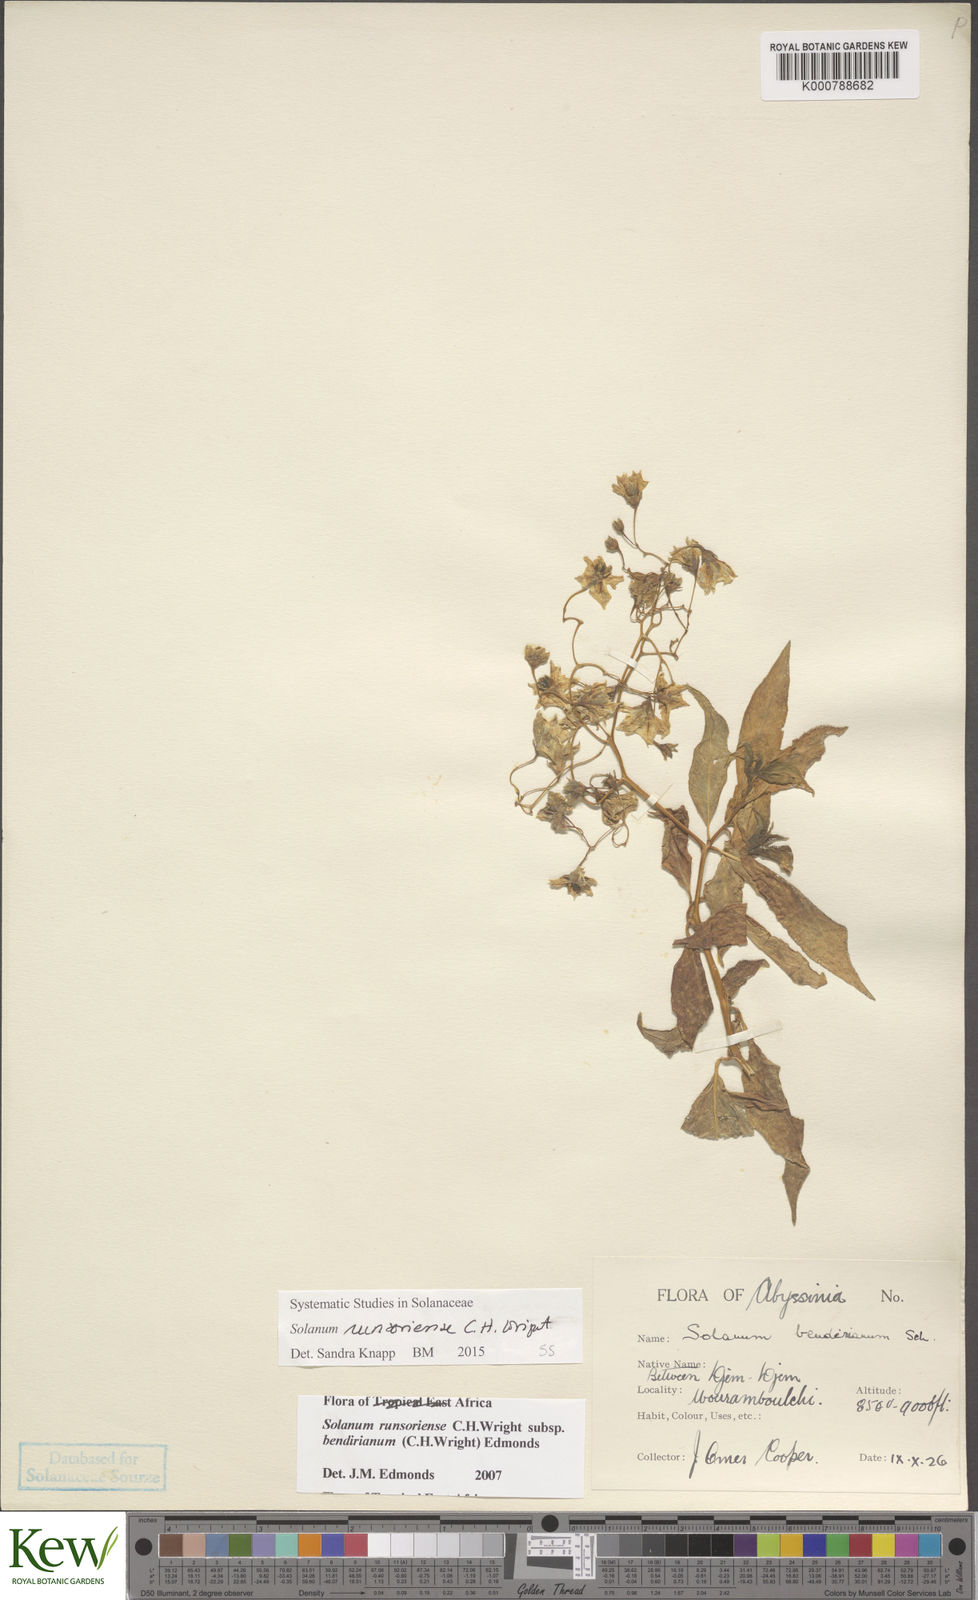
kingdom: Plantae
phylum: Tracheophyta
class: Magnoliopsida
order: Solanales
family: Solanaceae
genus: Solanum
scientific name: Solanum runsoriense
